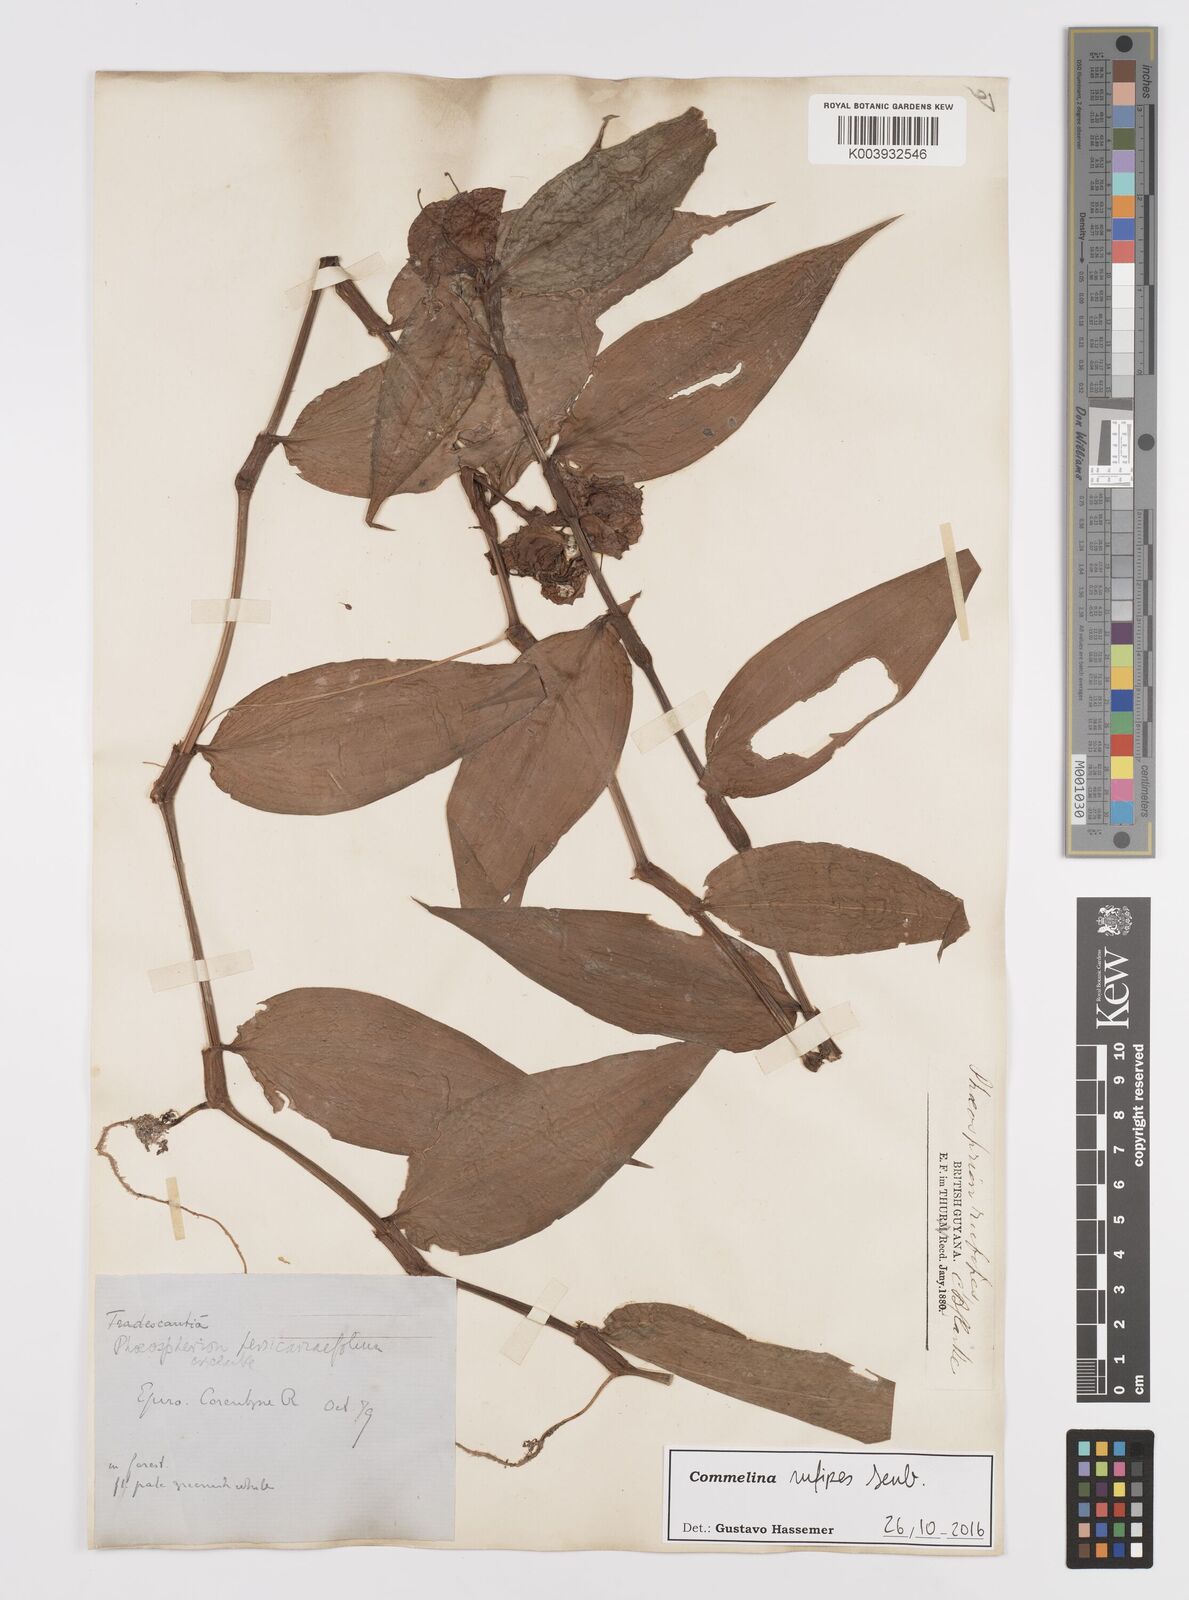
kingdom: Plantae
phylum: Tracheophyta
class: Liliopsida
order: Commelinales
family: Commelinaceae
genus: Commelina
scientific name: Commelina rufipes
